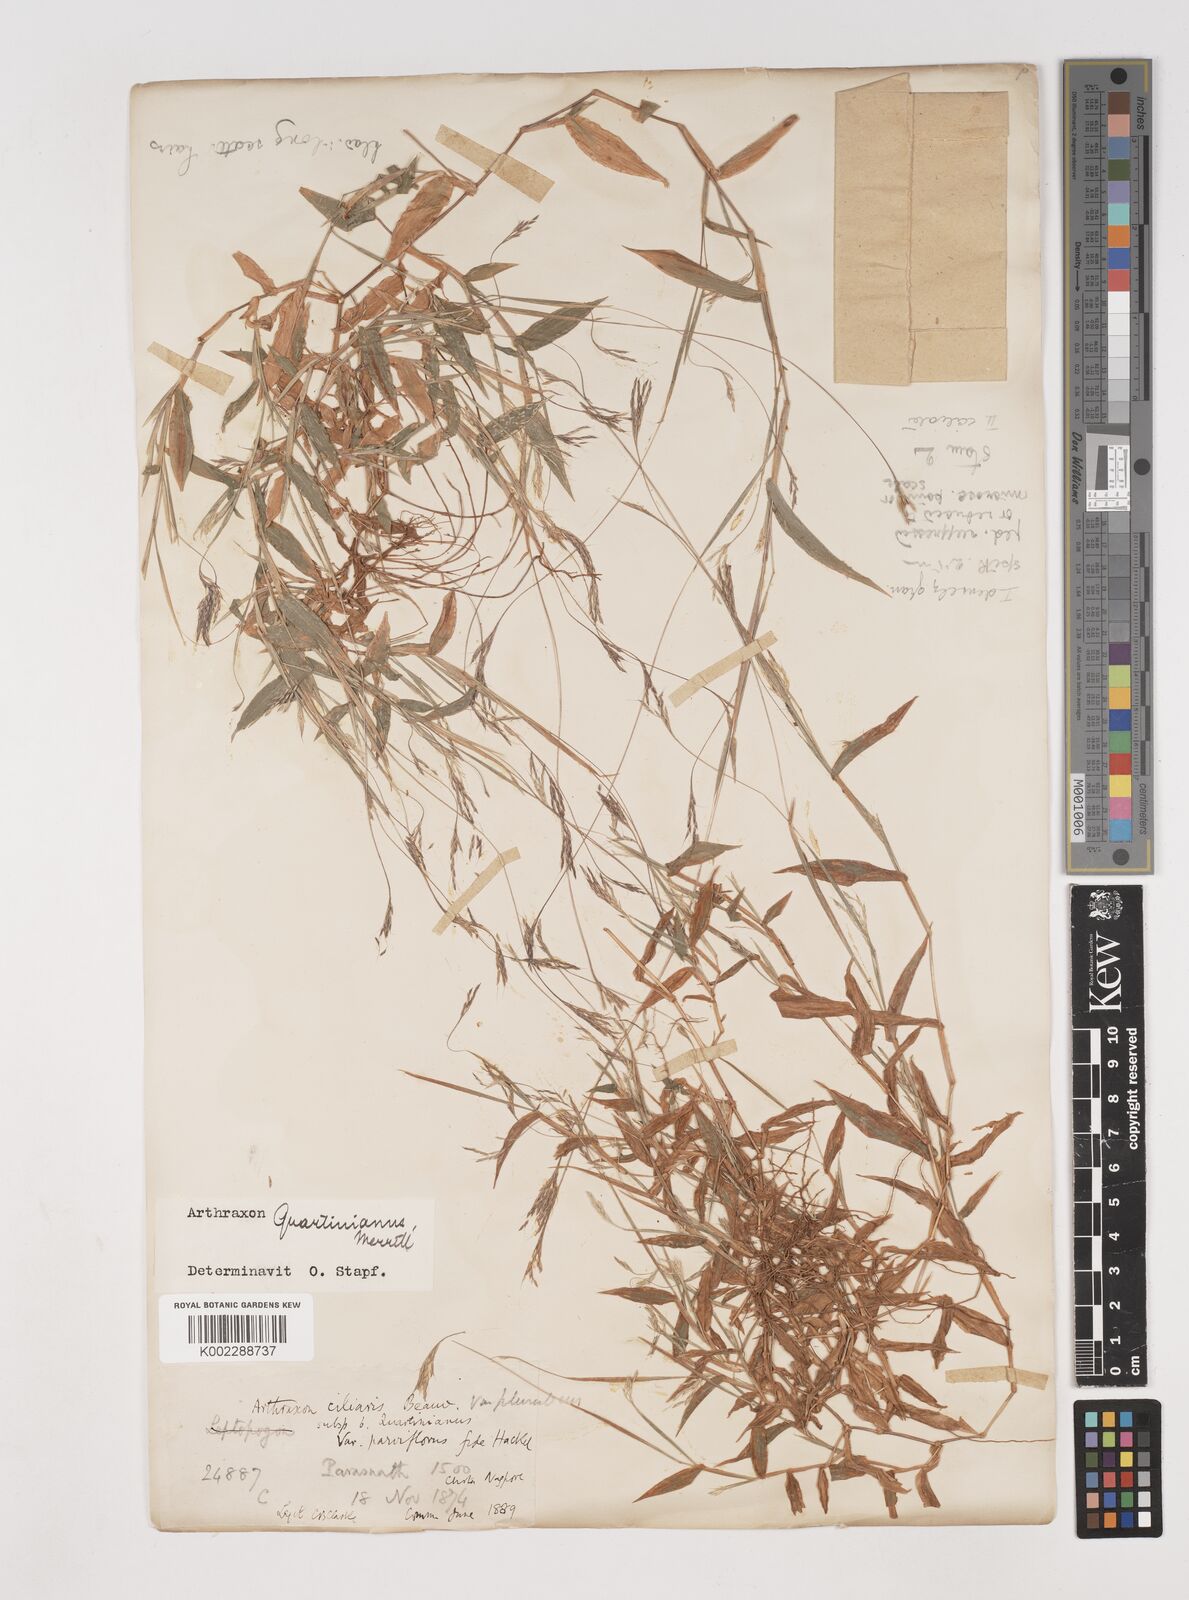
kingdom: Plantae
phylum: Tracheophyta
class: Liliopsida
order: Poales
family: Poaceae
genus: Arthraxon
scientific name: Arthraxon hispidus
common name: Small carpgrass
